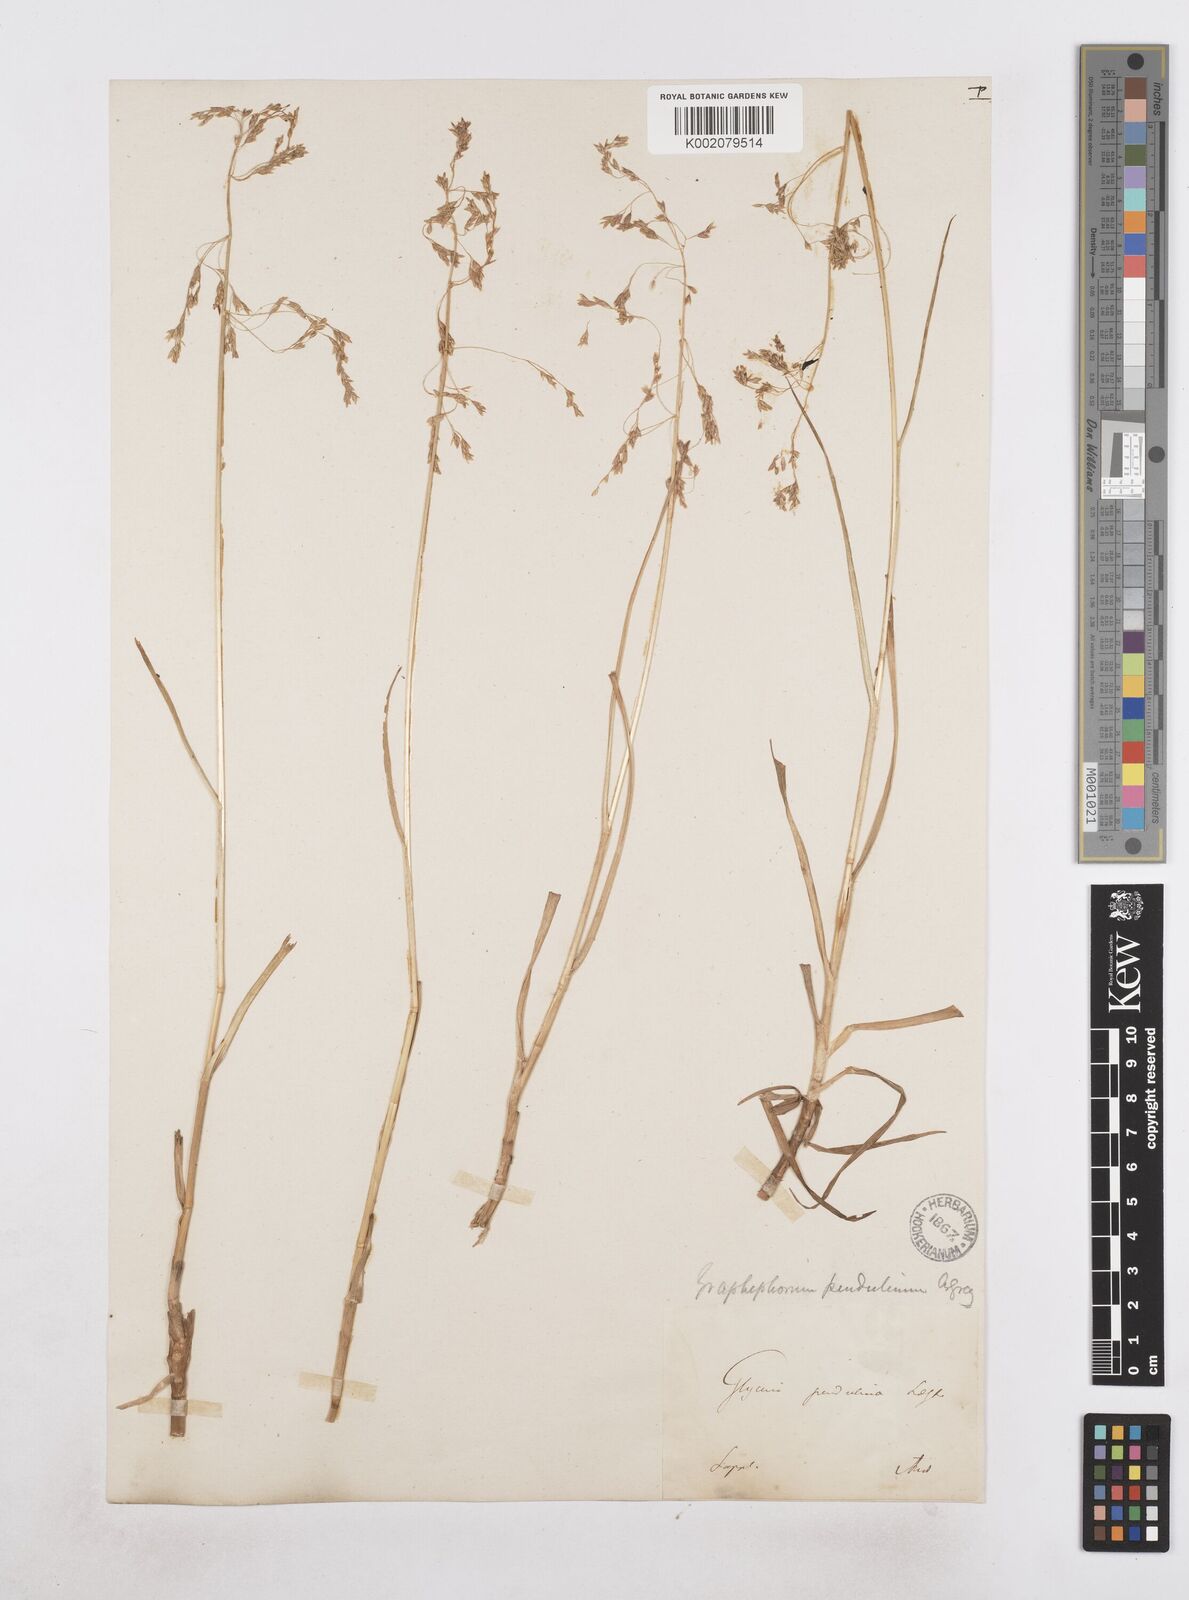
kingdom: Plantae
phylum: Tracheophyta
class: Liliopsida
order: Poales
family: Poaceae
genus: Dupontia
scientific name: Dupontia fulva
